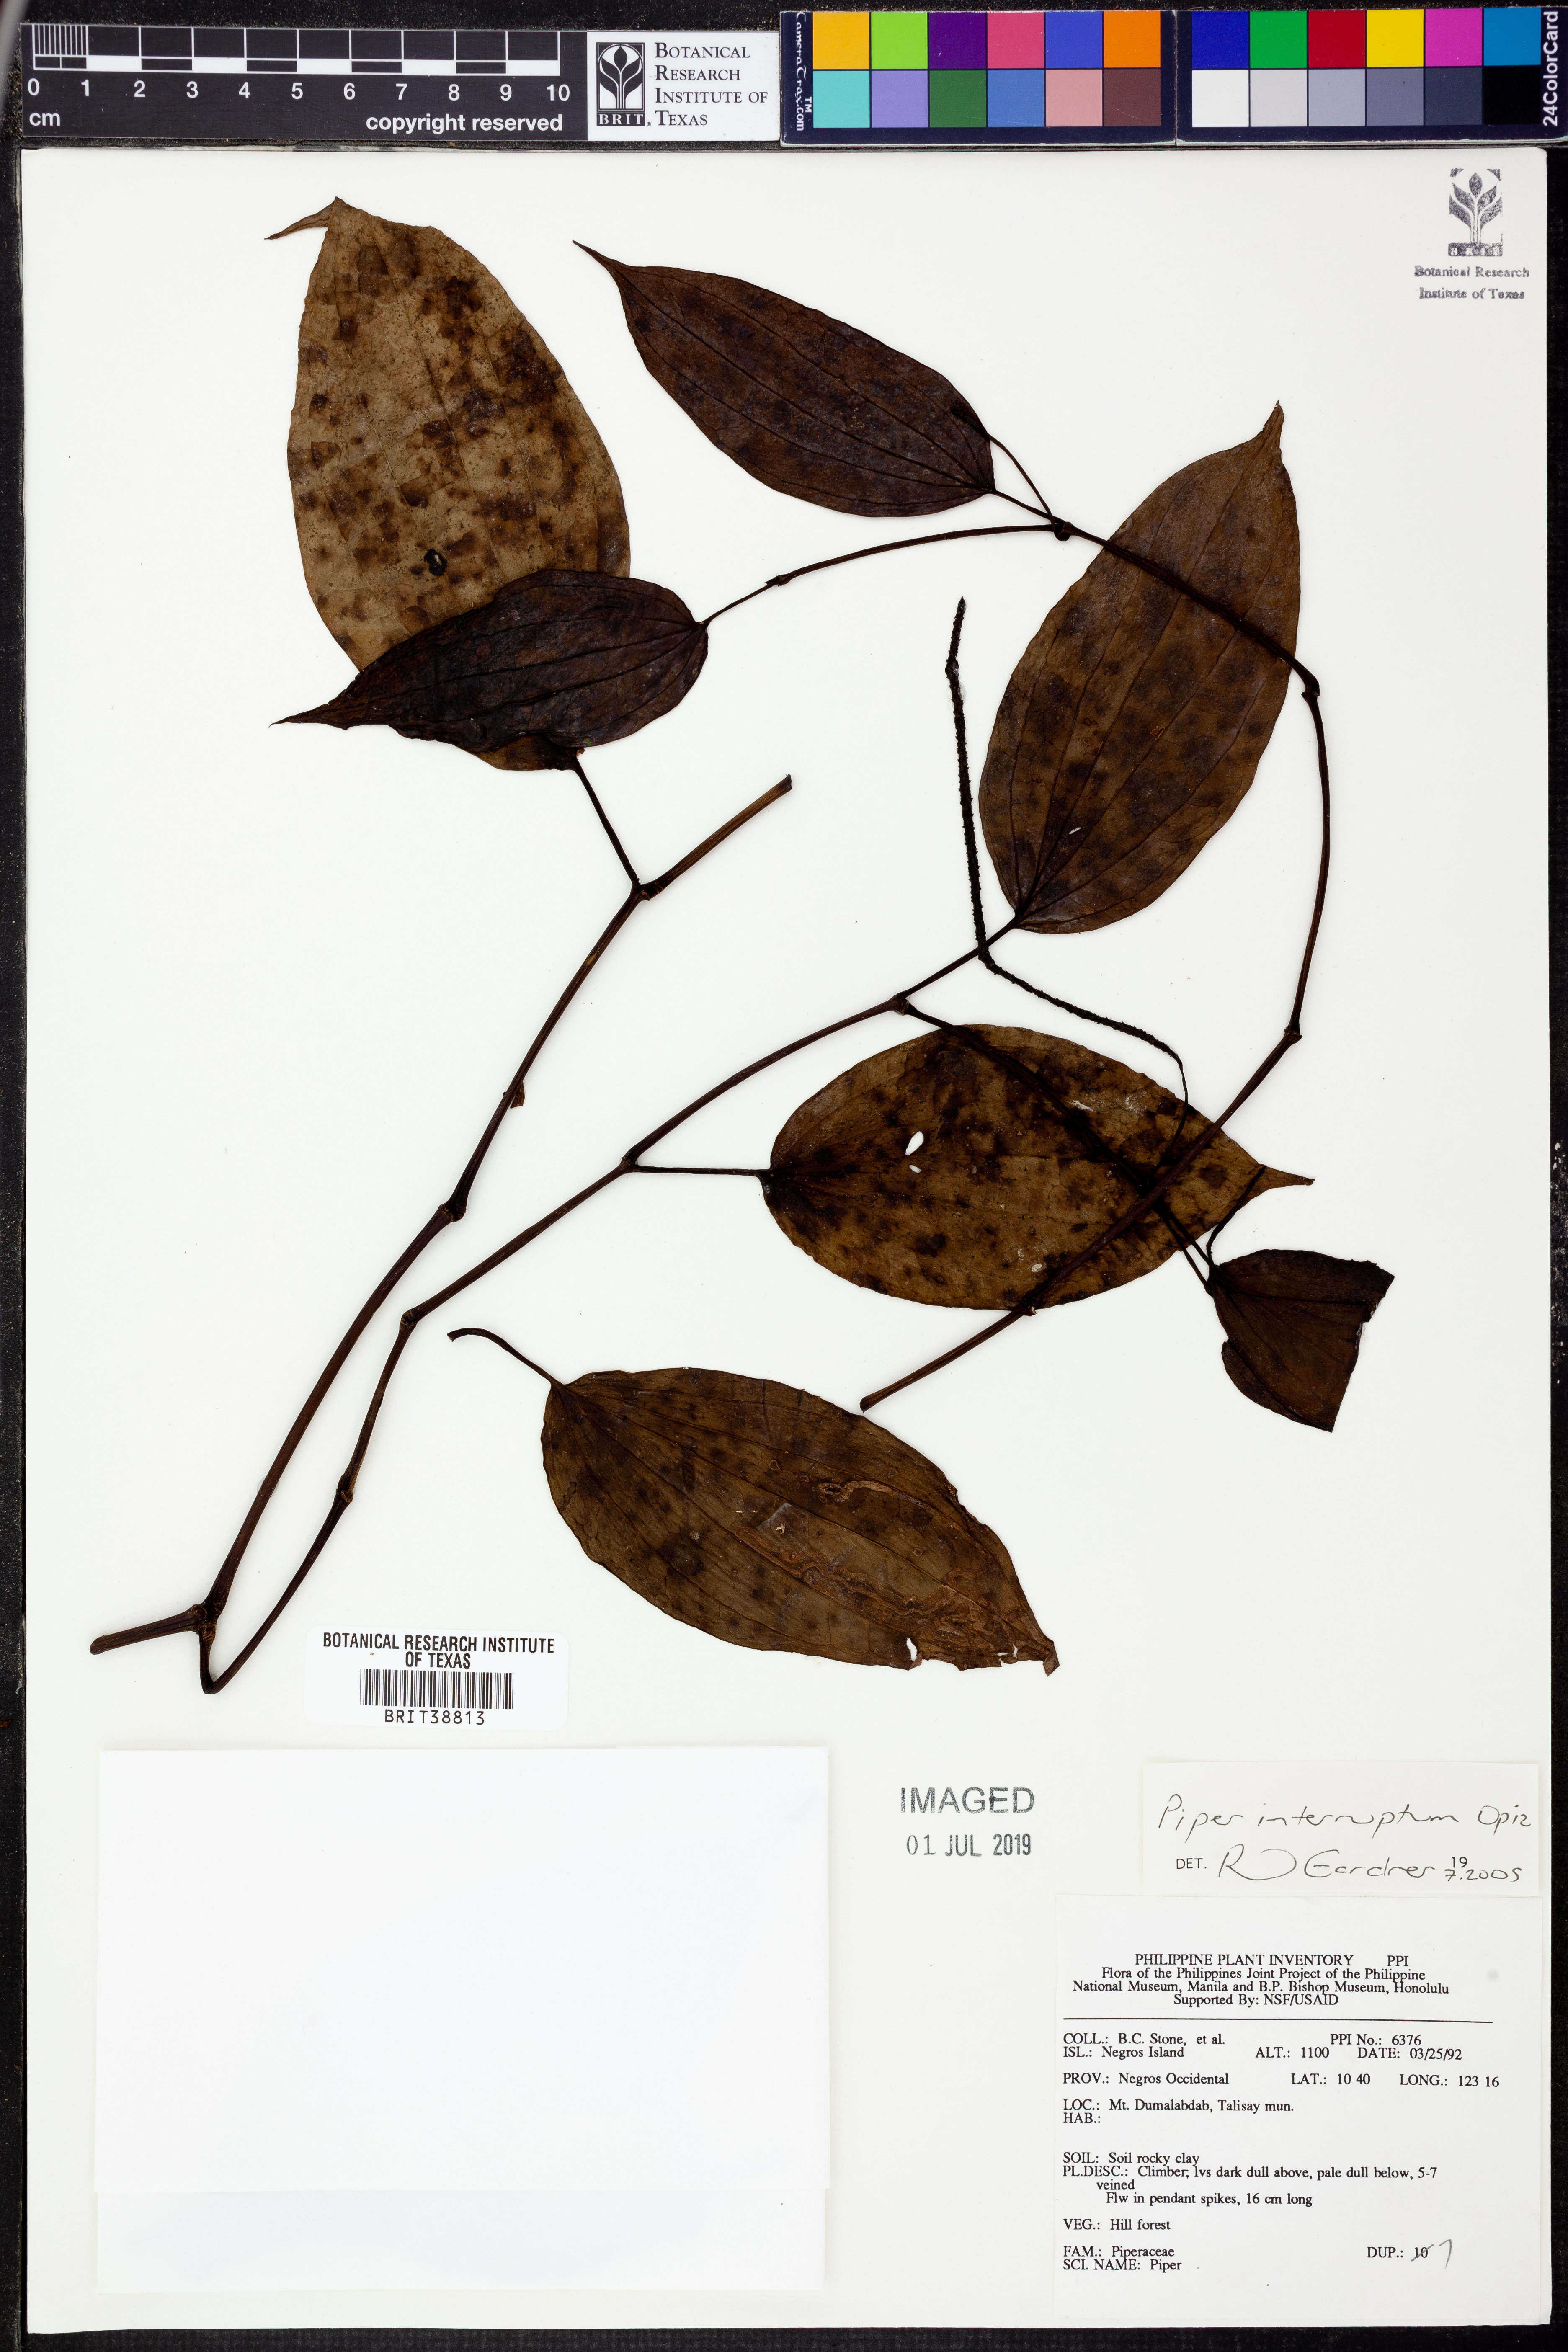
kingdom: Plantae
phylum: Tracheophyta
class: Magnoliopsida
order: Piperales
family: Piperaceae
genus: Piper
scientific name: Piper interruptum
